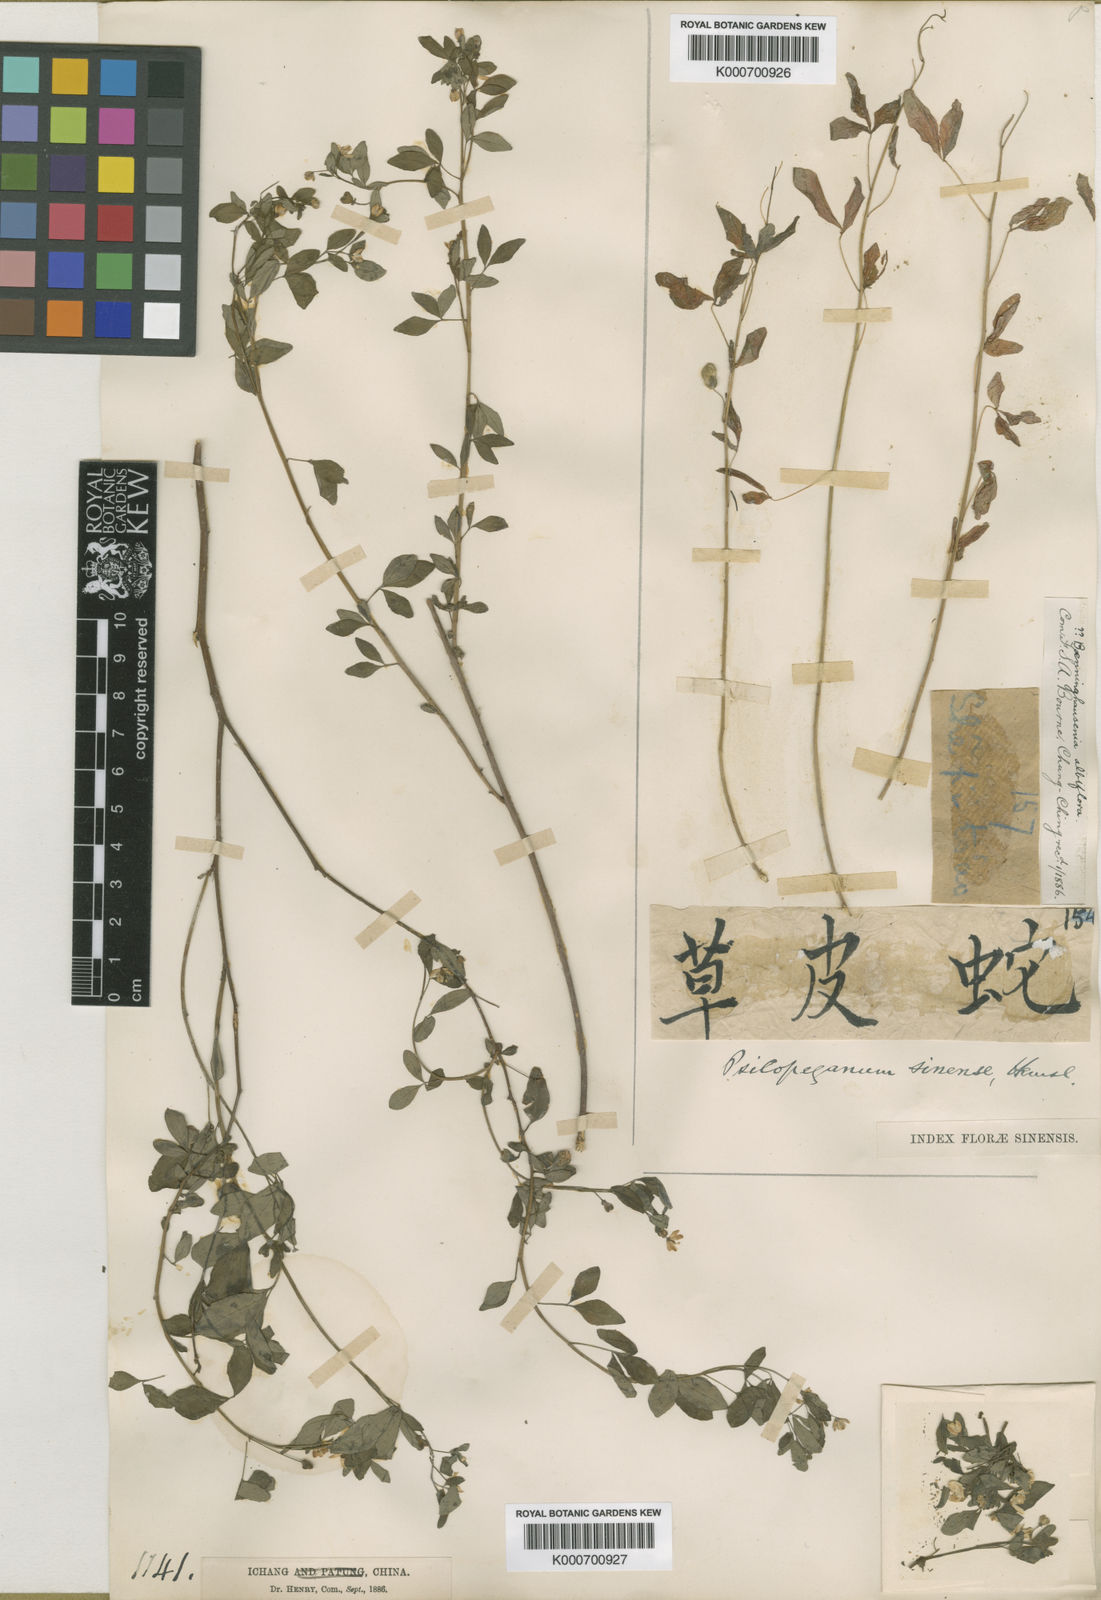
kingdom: Plantae
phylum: Tracheophyta
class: Magnoliopsida
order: Sapindales
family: Rutaceae
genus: Psilopeganum
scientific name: Psilopeganum sinense
